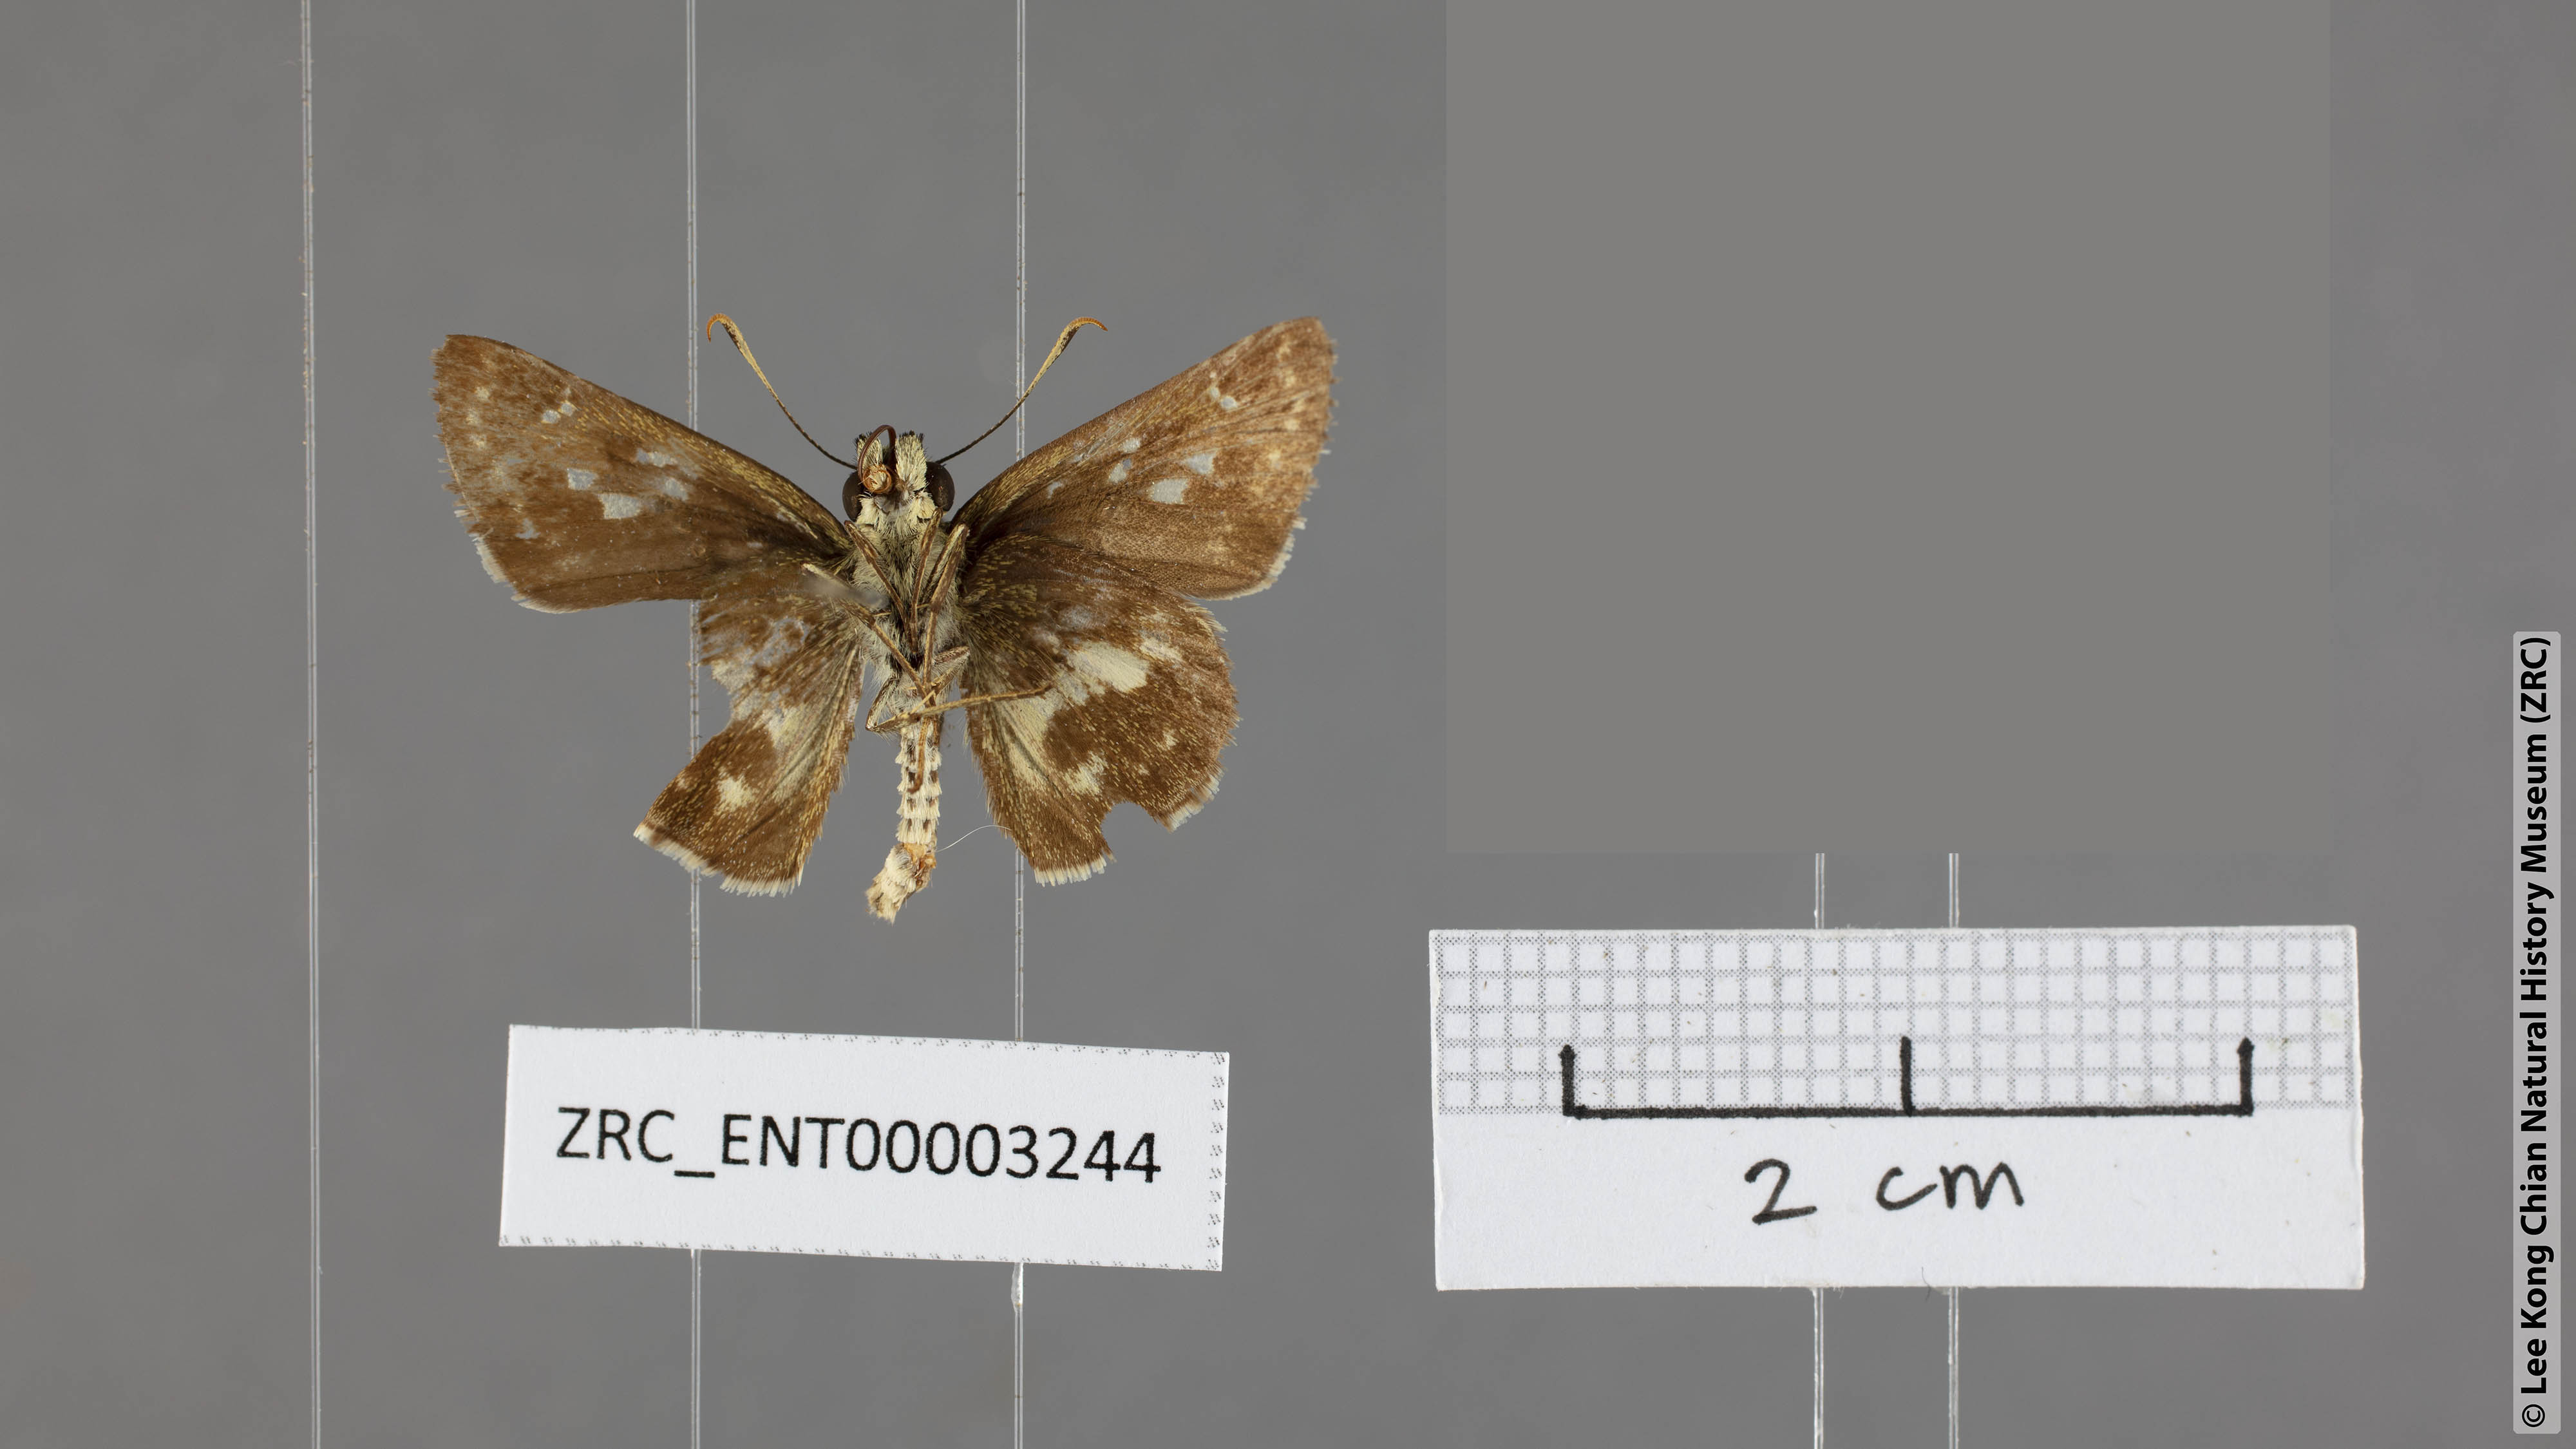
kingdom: Animalia
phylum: Arthropoda
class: Insecta
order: Lepidoptera
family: Hesperiidae
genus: Halpe
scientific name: Halpe porus
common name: Moore's ace
